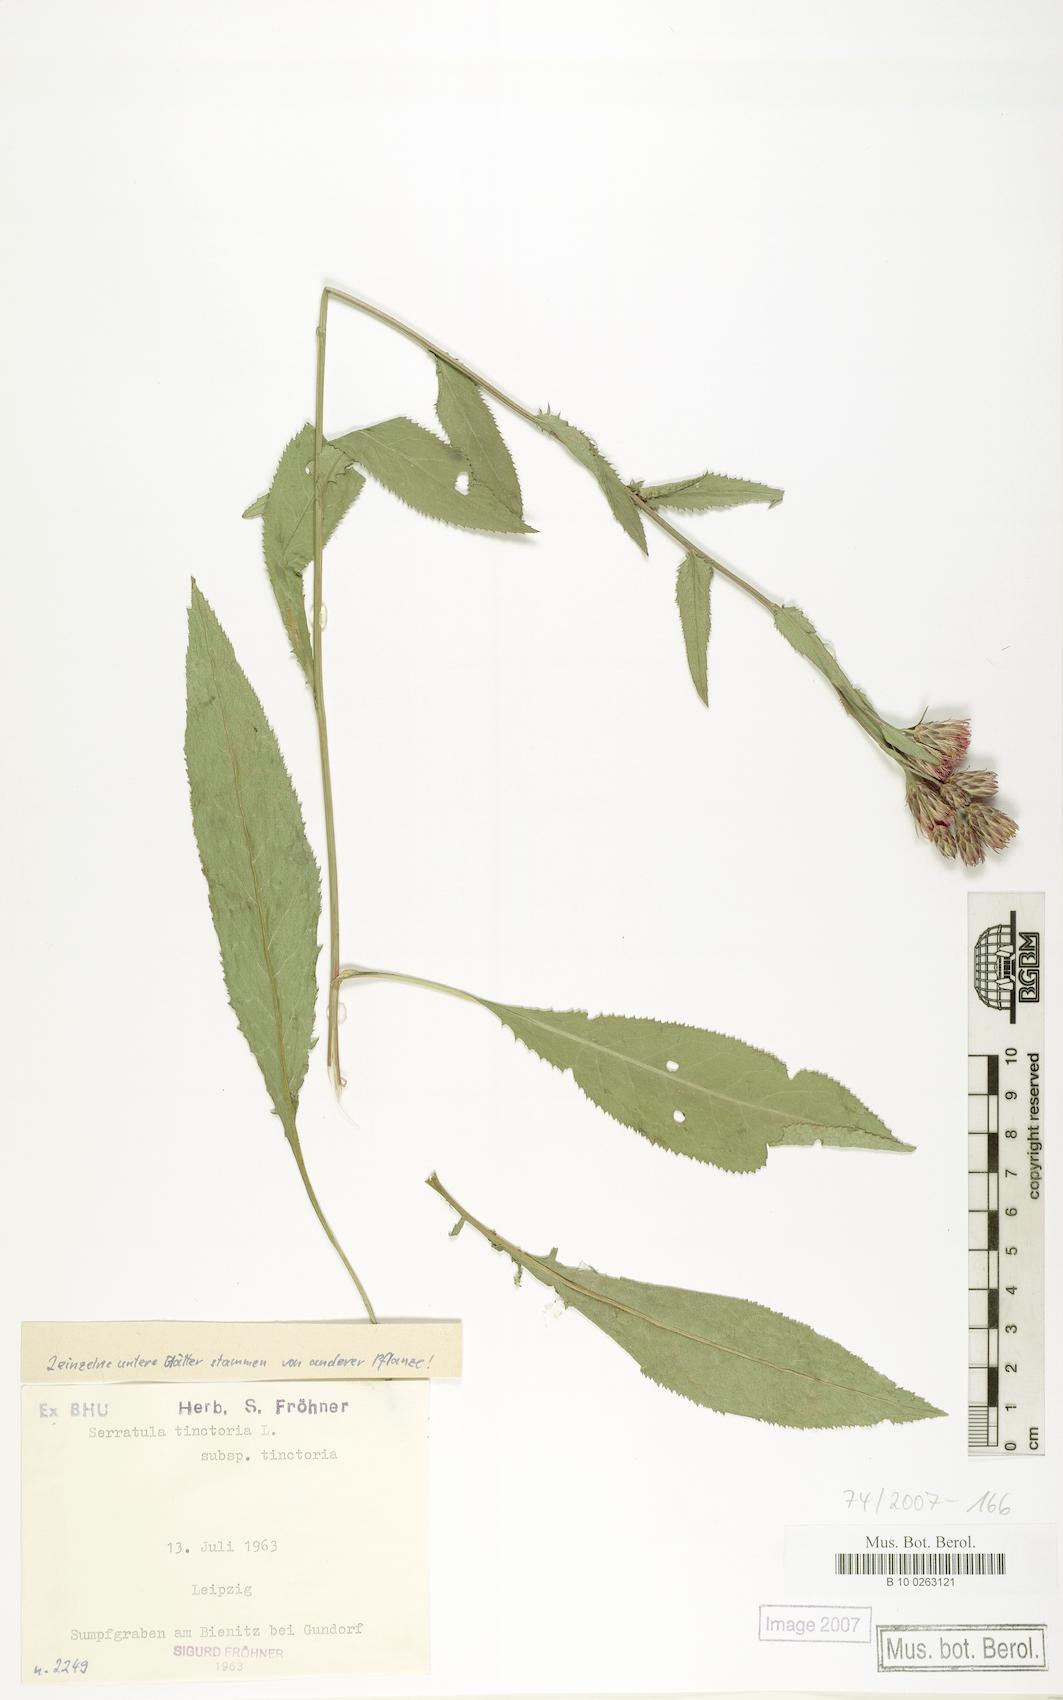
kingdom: Plantae
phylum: Tracheophyta
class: Magnoliopsida
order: Asterales
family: Asteraceae
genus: Serratula
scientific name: Serratula tinctoria
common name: Saw-wort
